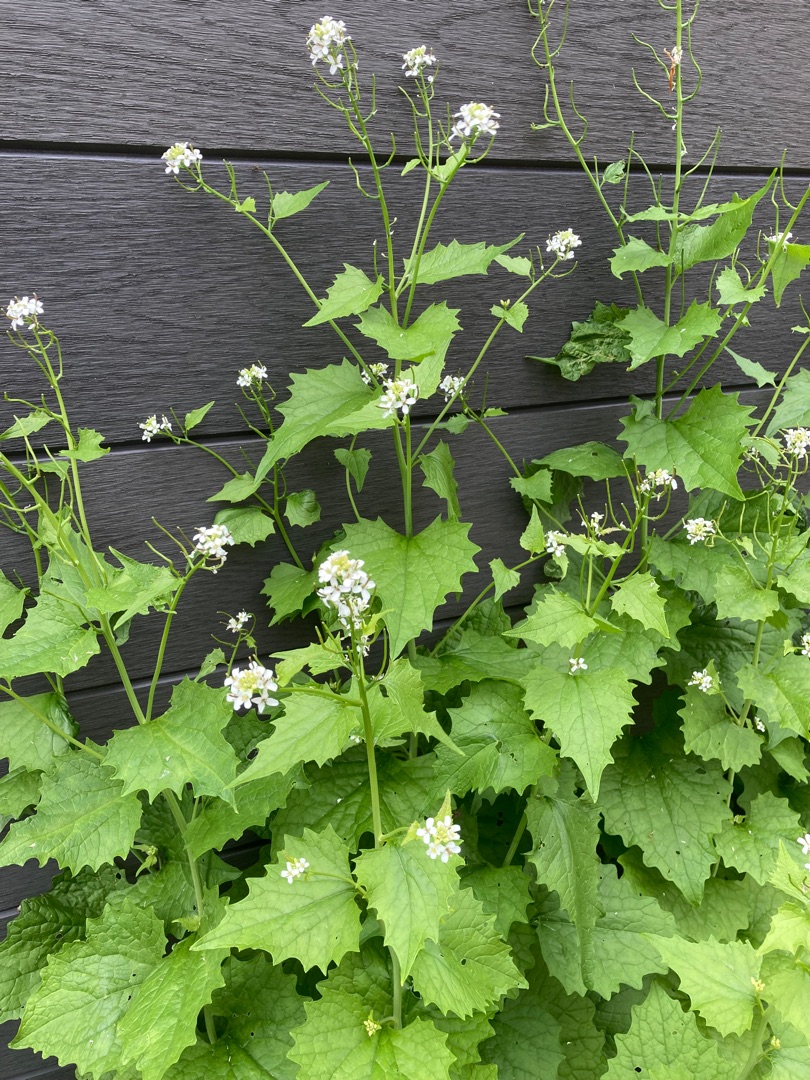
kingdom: Plantae
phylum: Tracheophyta
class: Magnoliopsida
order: Brassicales
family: Brassicaceae
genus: Alliaria
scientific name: Alliaria petiolata
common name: Løgkarse
